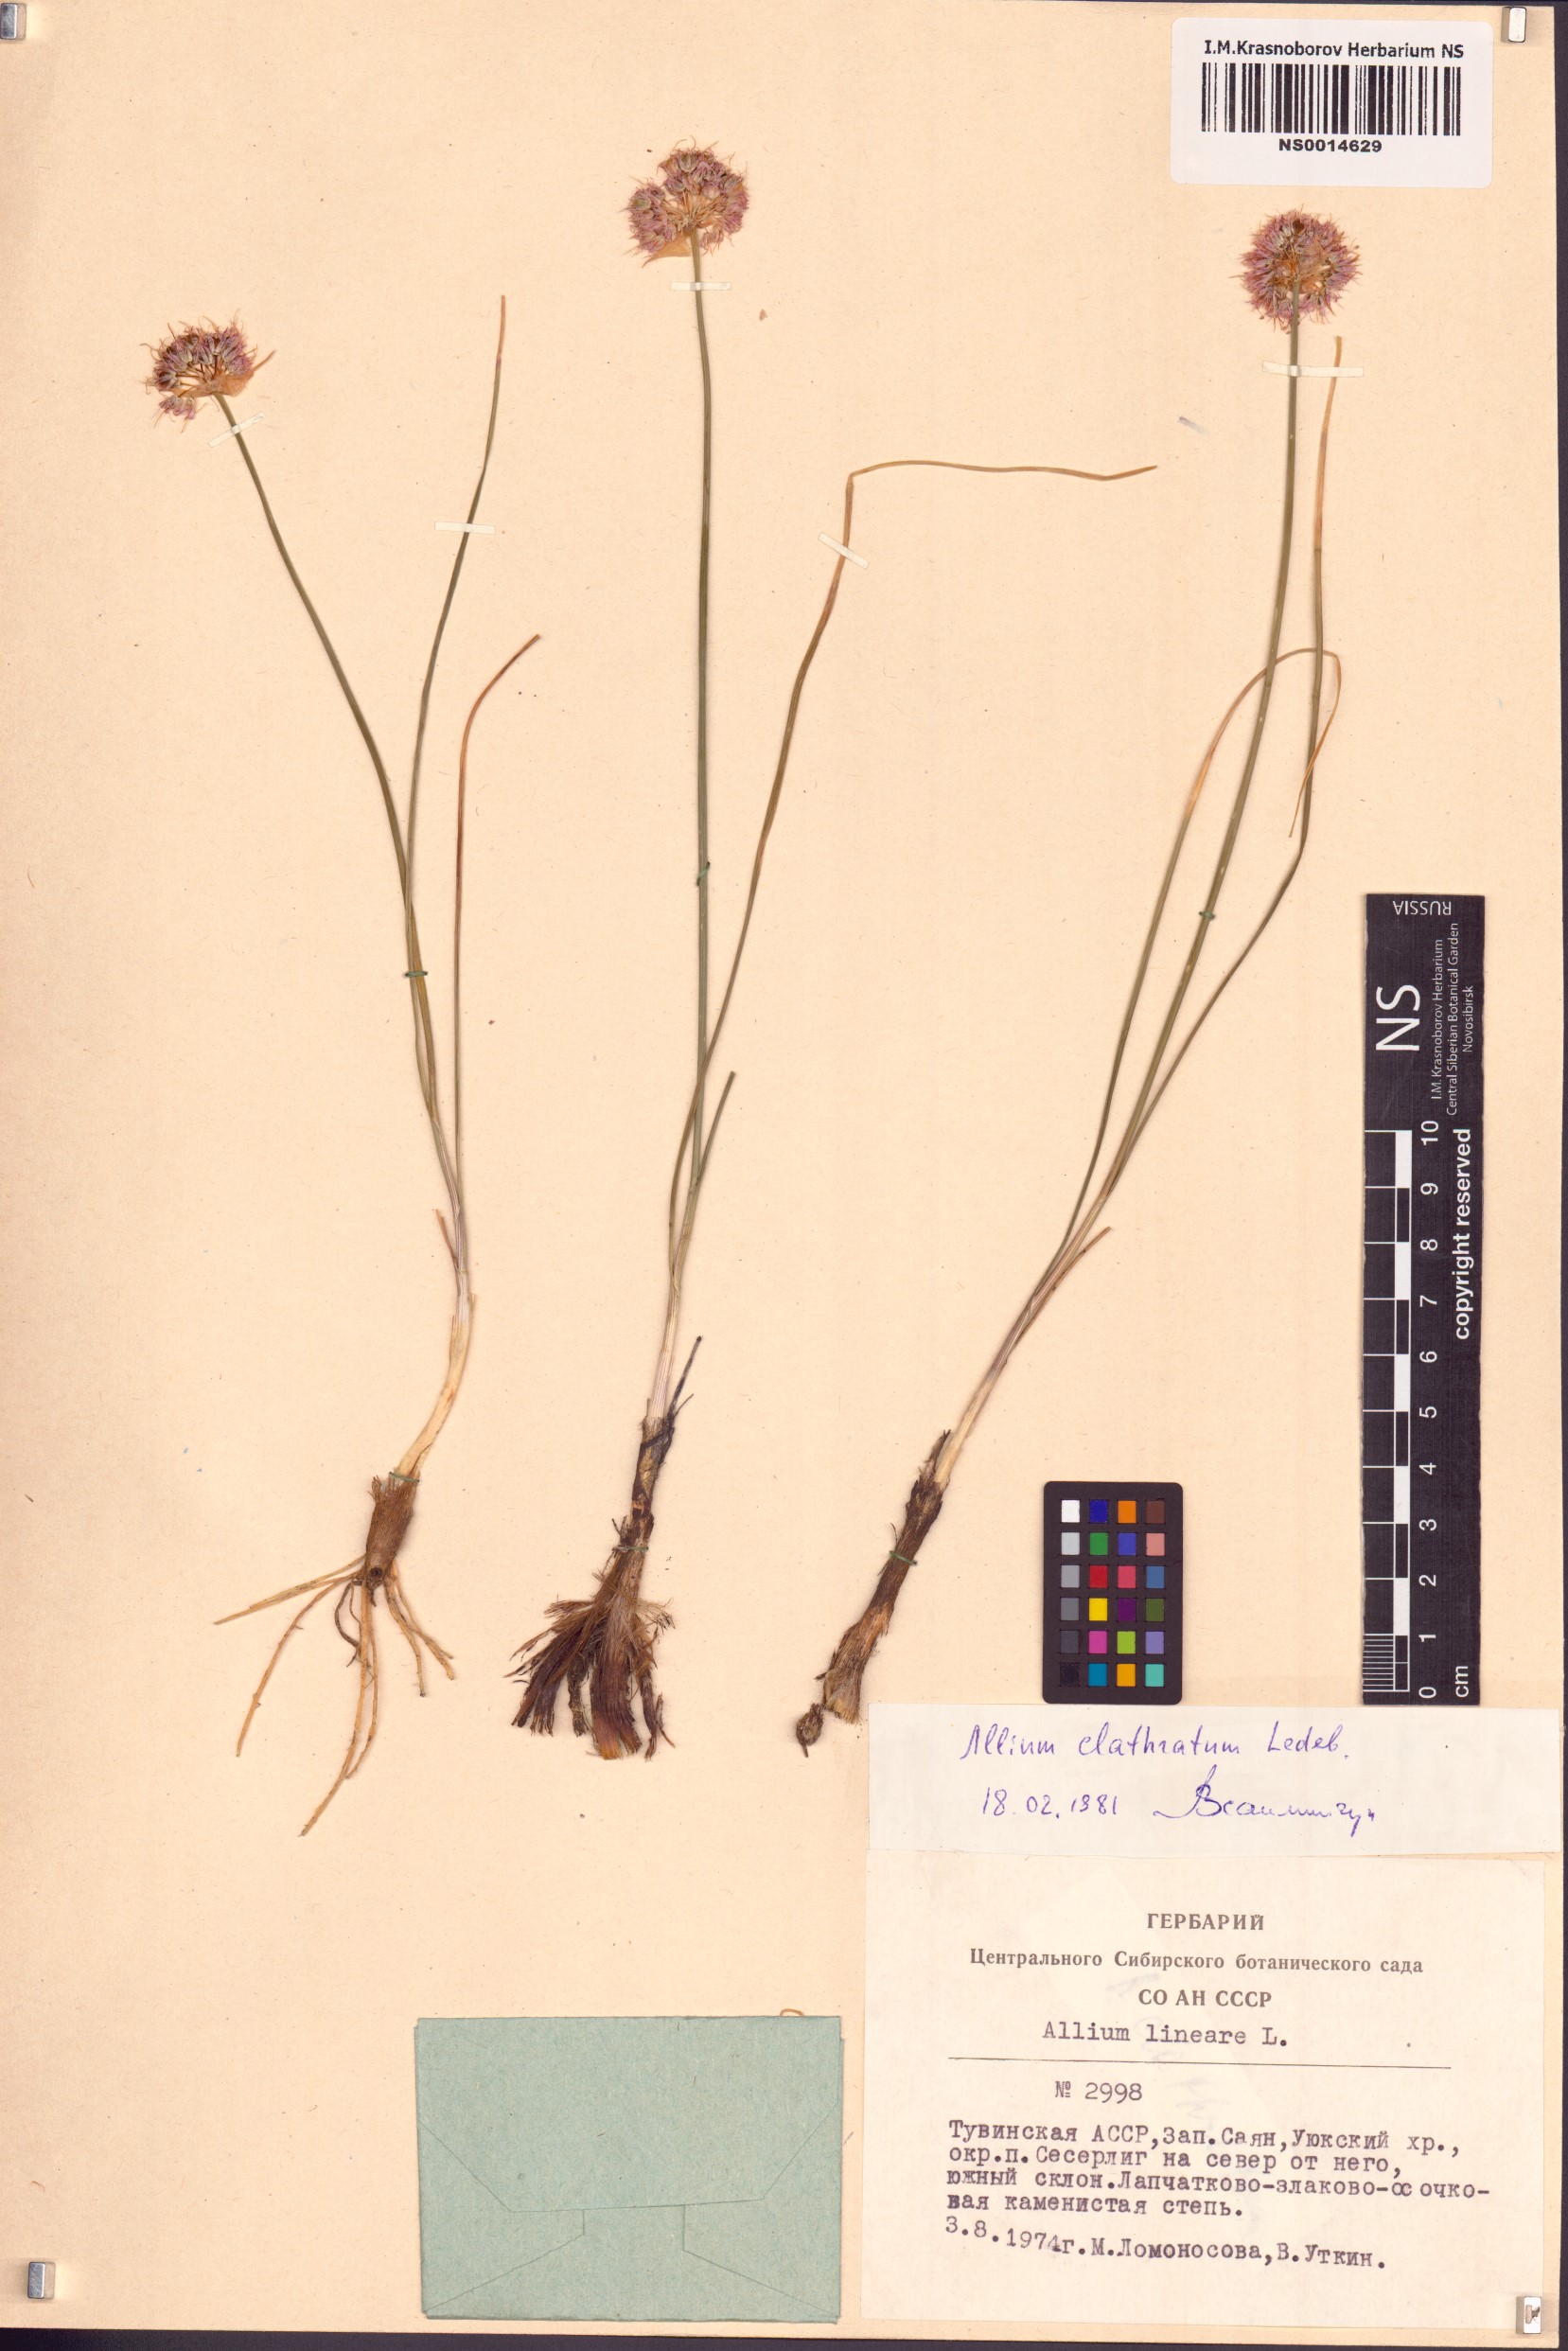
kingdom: Plantae
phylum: Tracheophyta
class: Liliopsida
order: Asparagales
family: Amaryllidaceae
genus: Allium
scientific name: Allium clathratum
